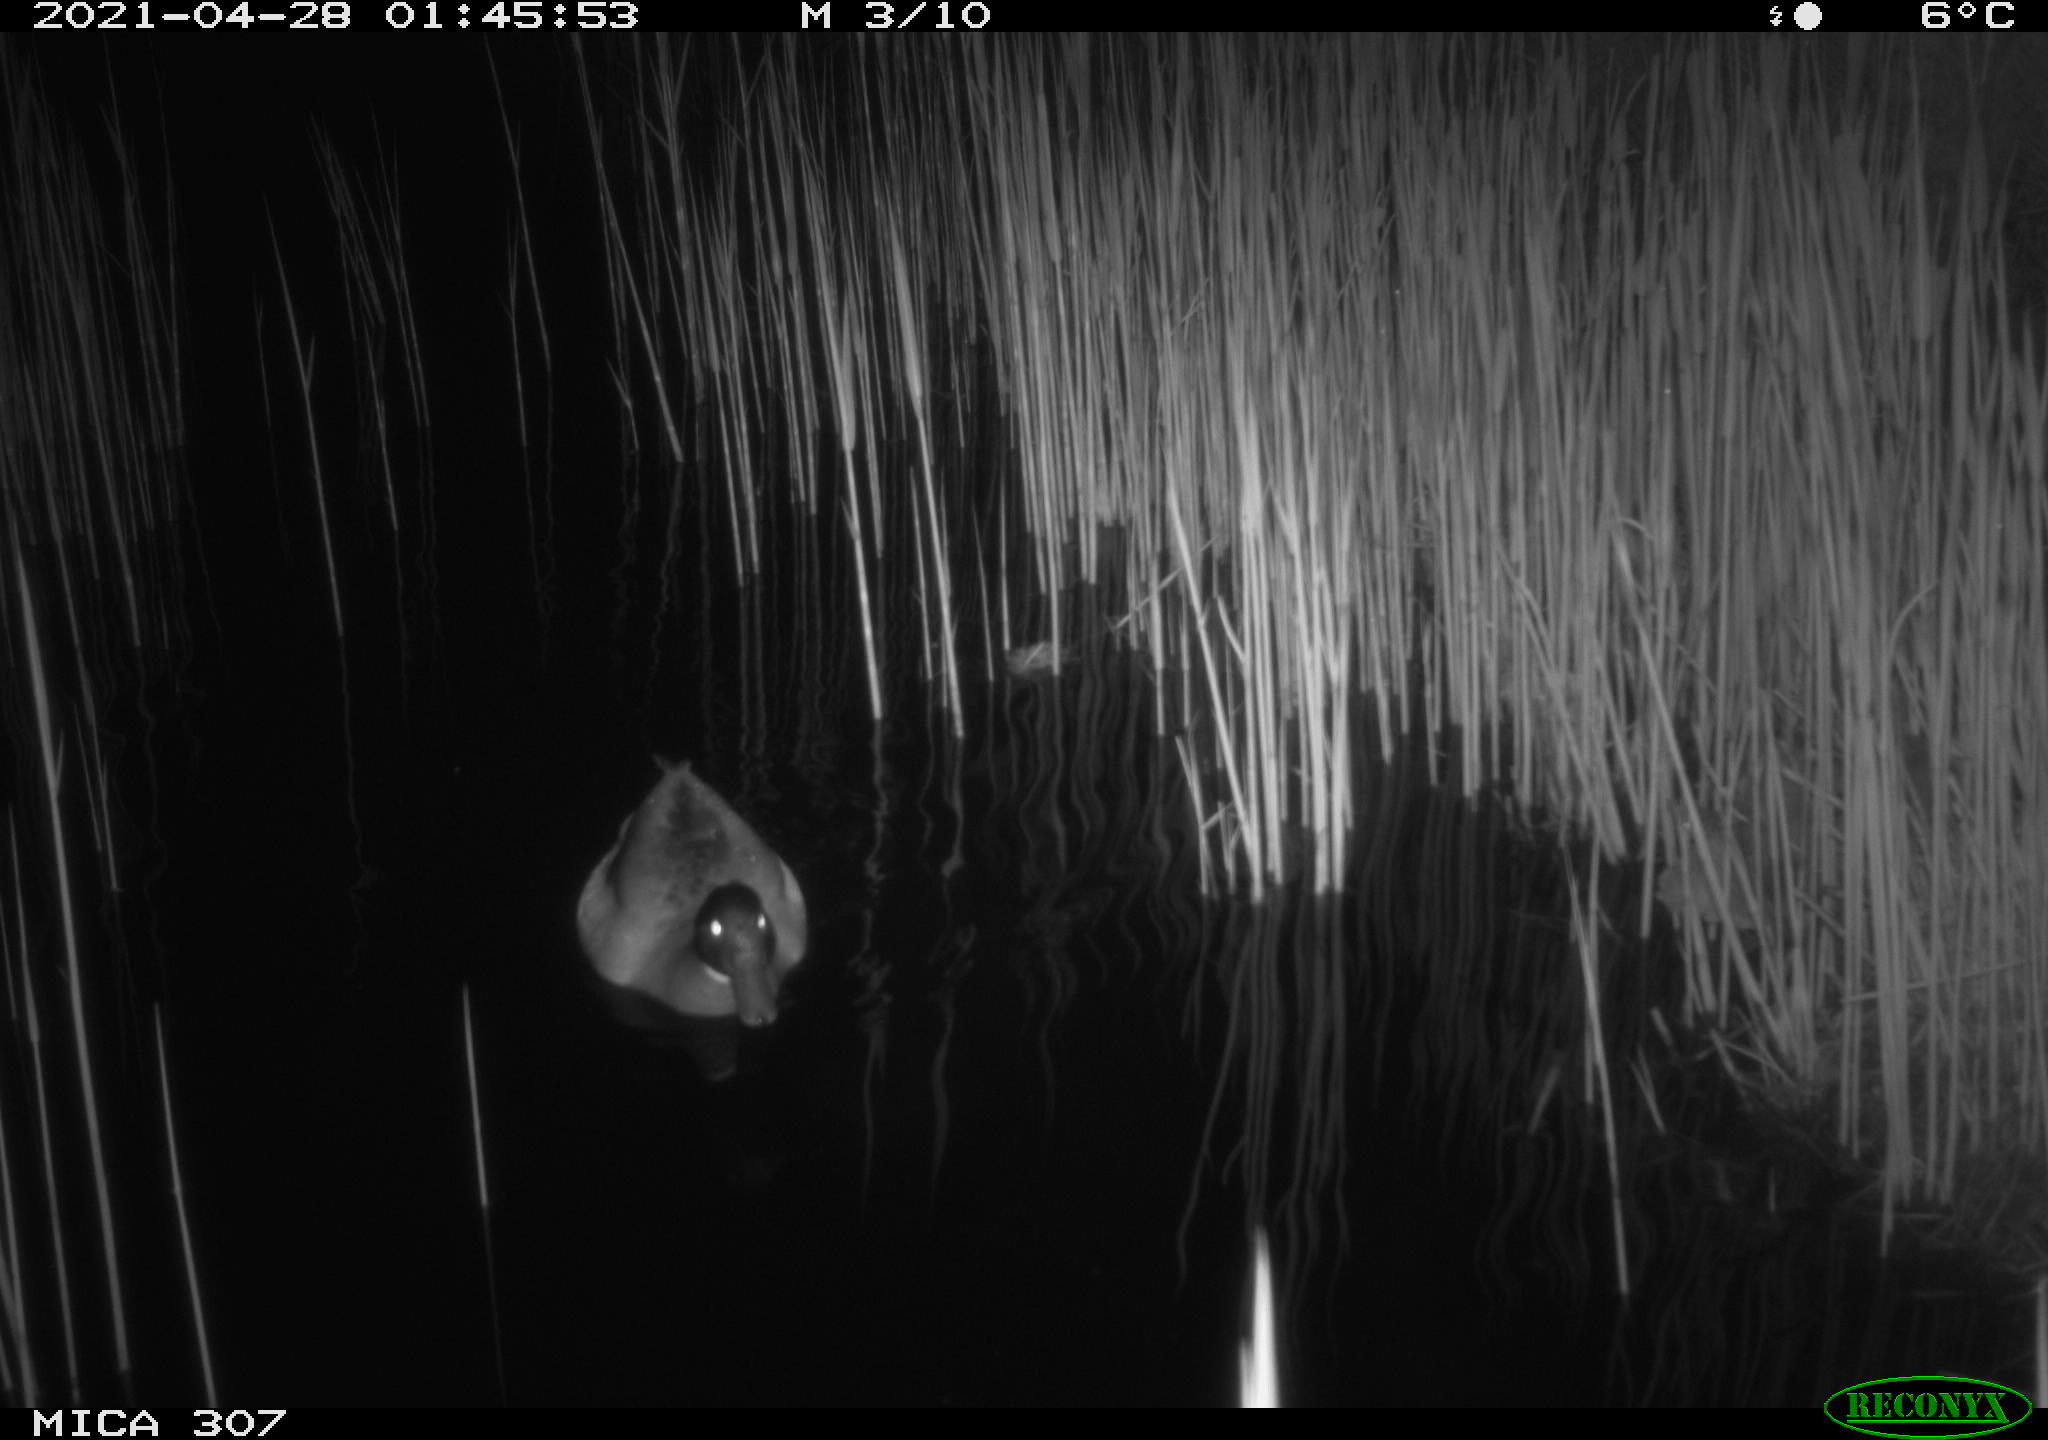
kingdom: Animalia
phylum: Chordata
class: Aves
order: Anseriformes
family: Anatidae
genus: Anas
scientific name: Anas platyrhynchos
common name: Mallard
